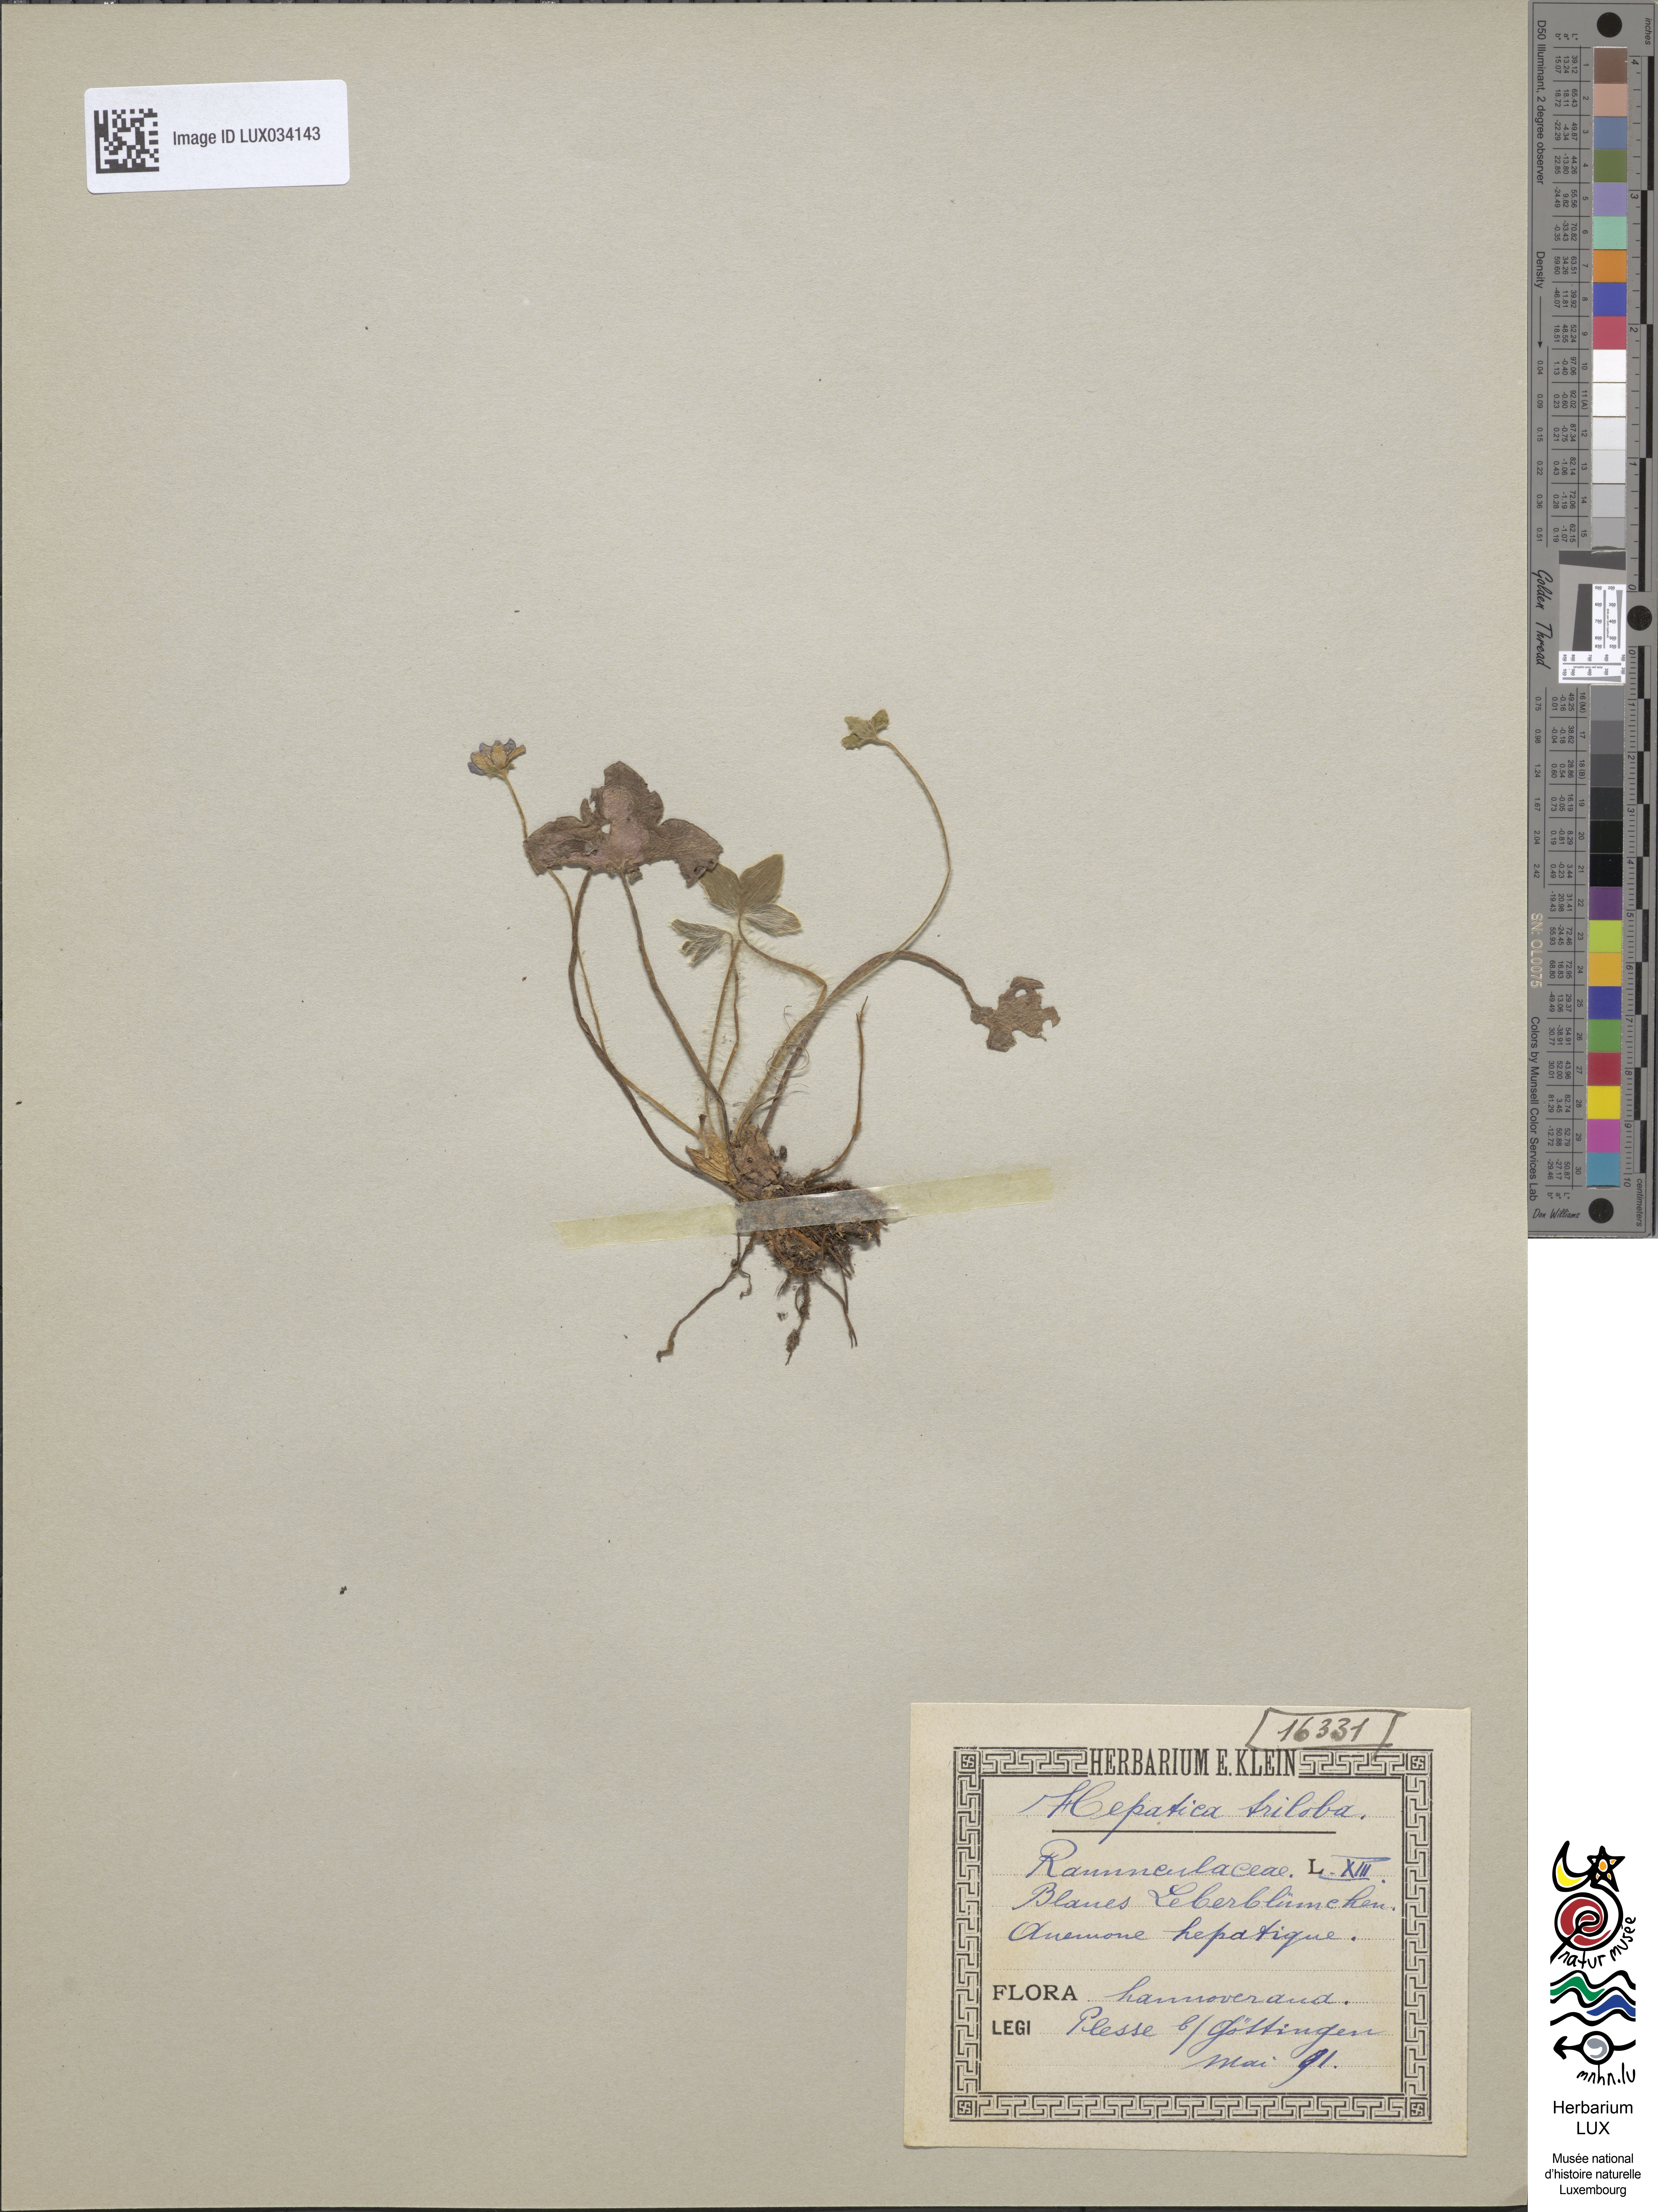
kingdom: Plantae
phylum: Tracheophyta
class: Magnoliopsida
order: Ranunculales
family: Ranunculaceae
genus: Hepatica
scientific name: Hepatica nobilis
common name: Liverleaf
